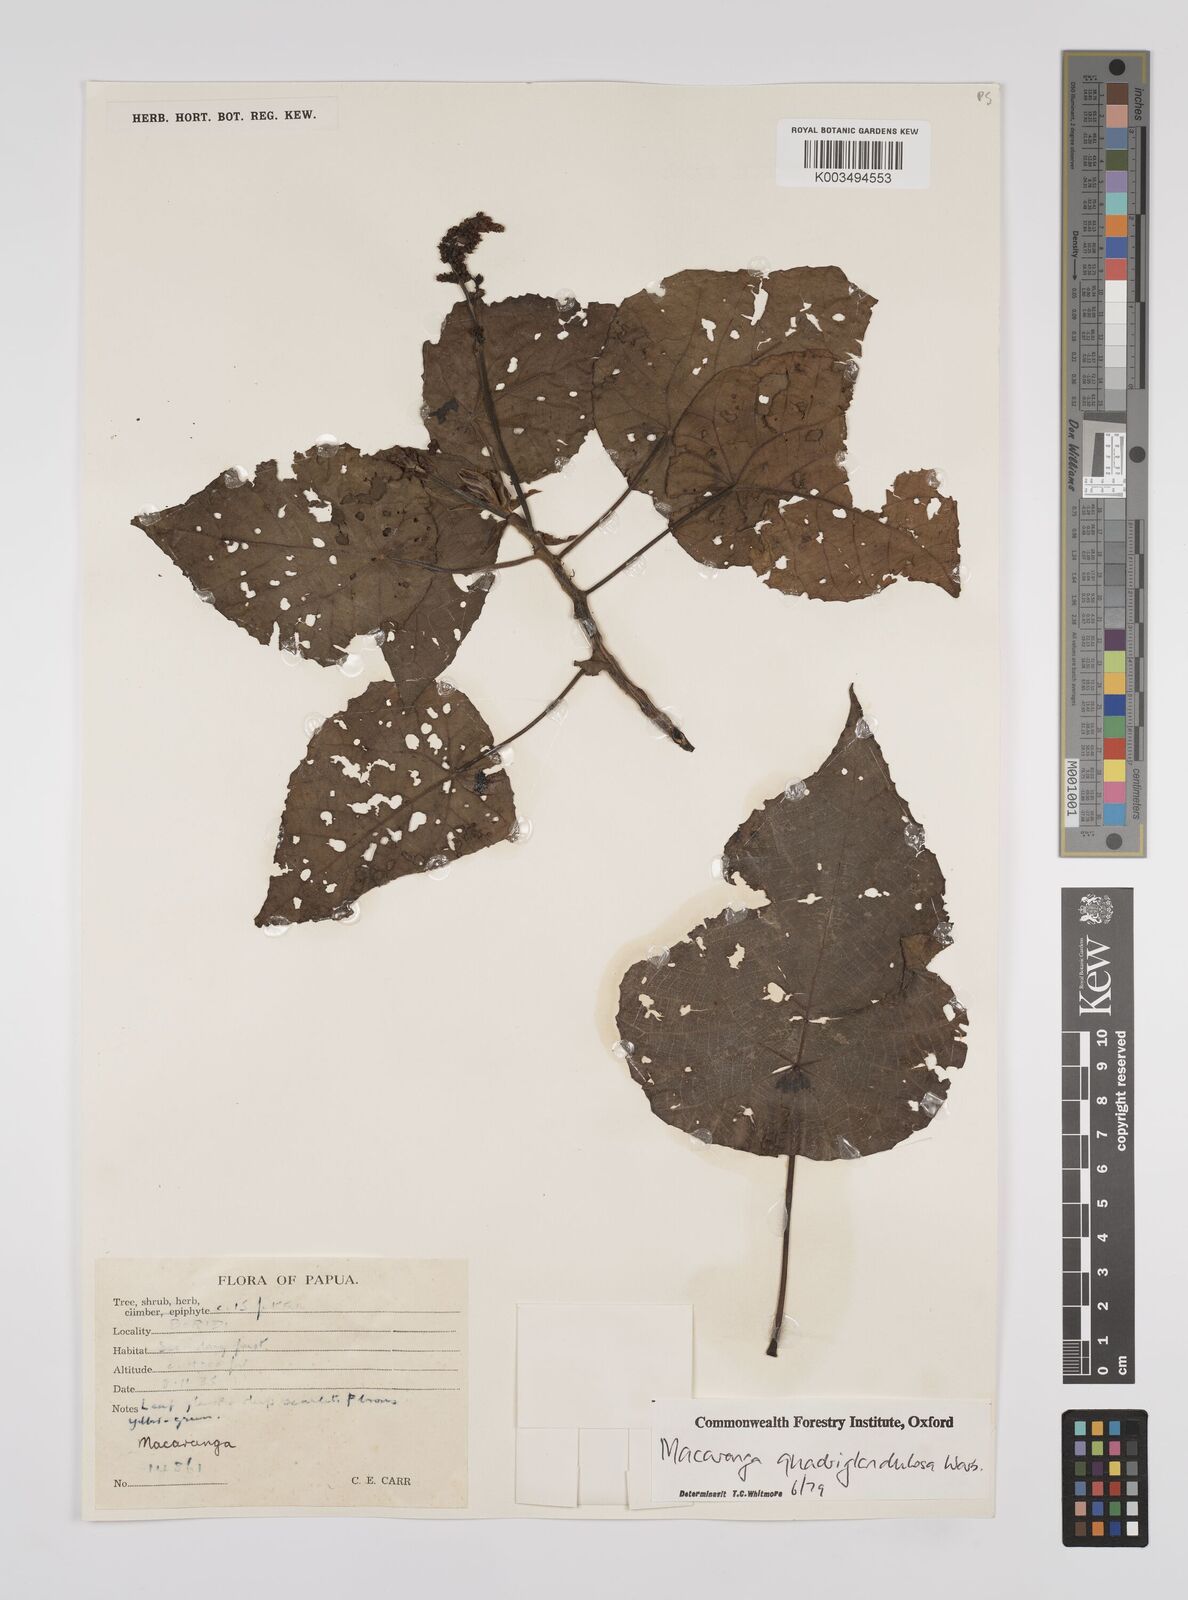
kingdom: Plantae
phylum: Tracheophyta
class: Magnoliopsida
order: Malpighiales
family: Euphorbiaceae
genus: Macaranga
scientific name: Macaranga quadriglandulosa
